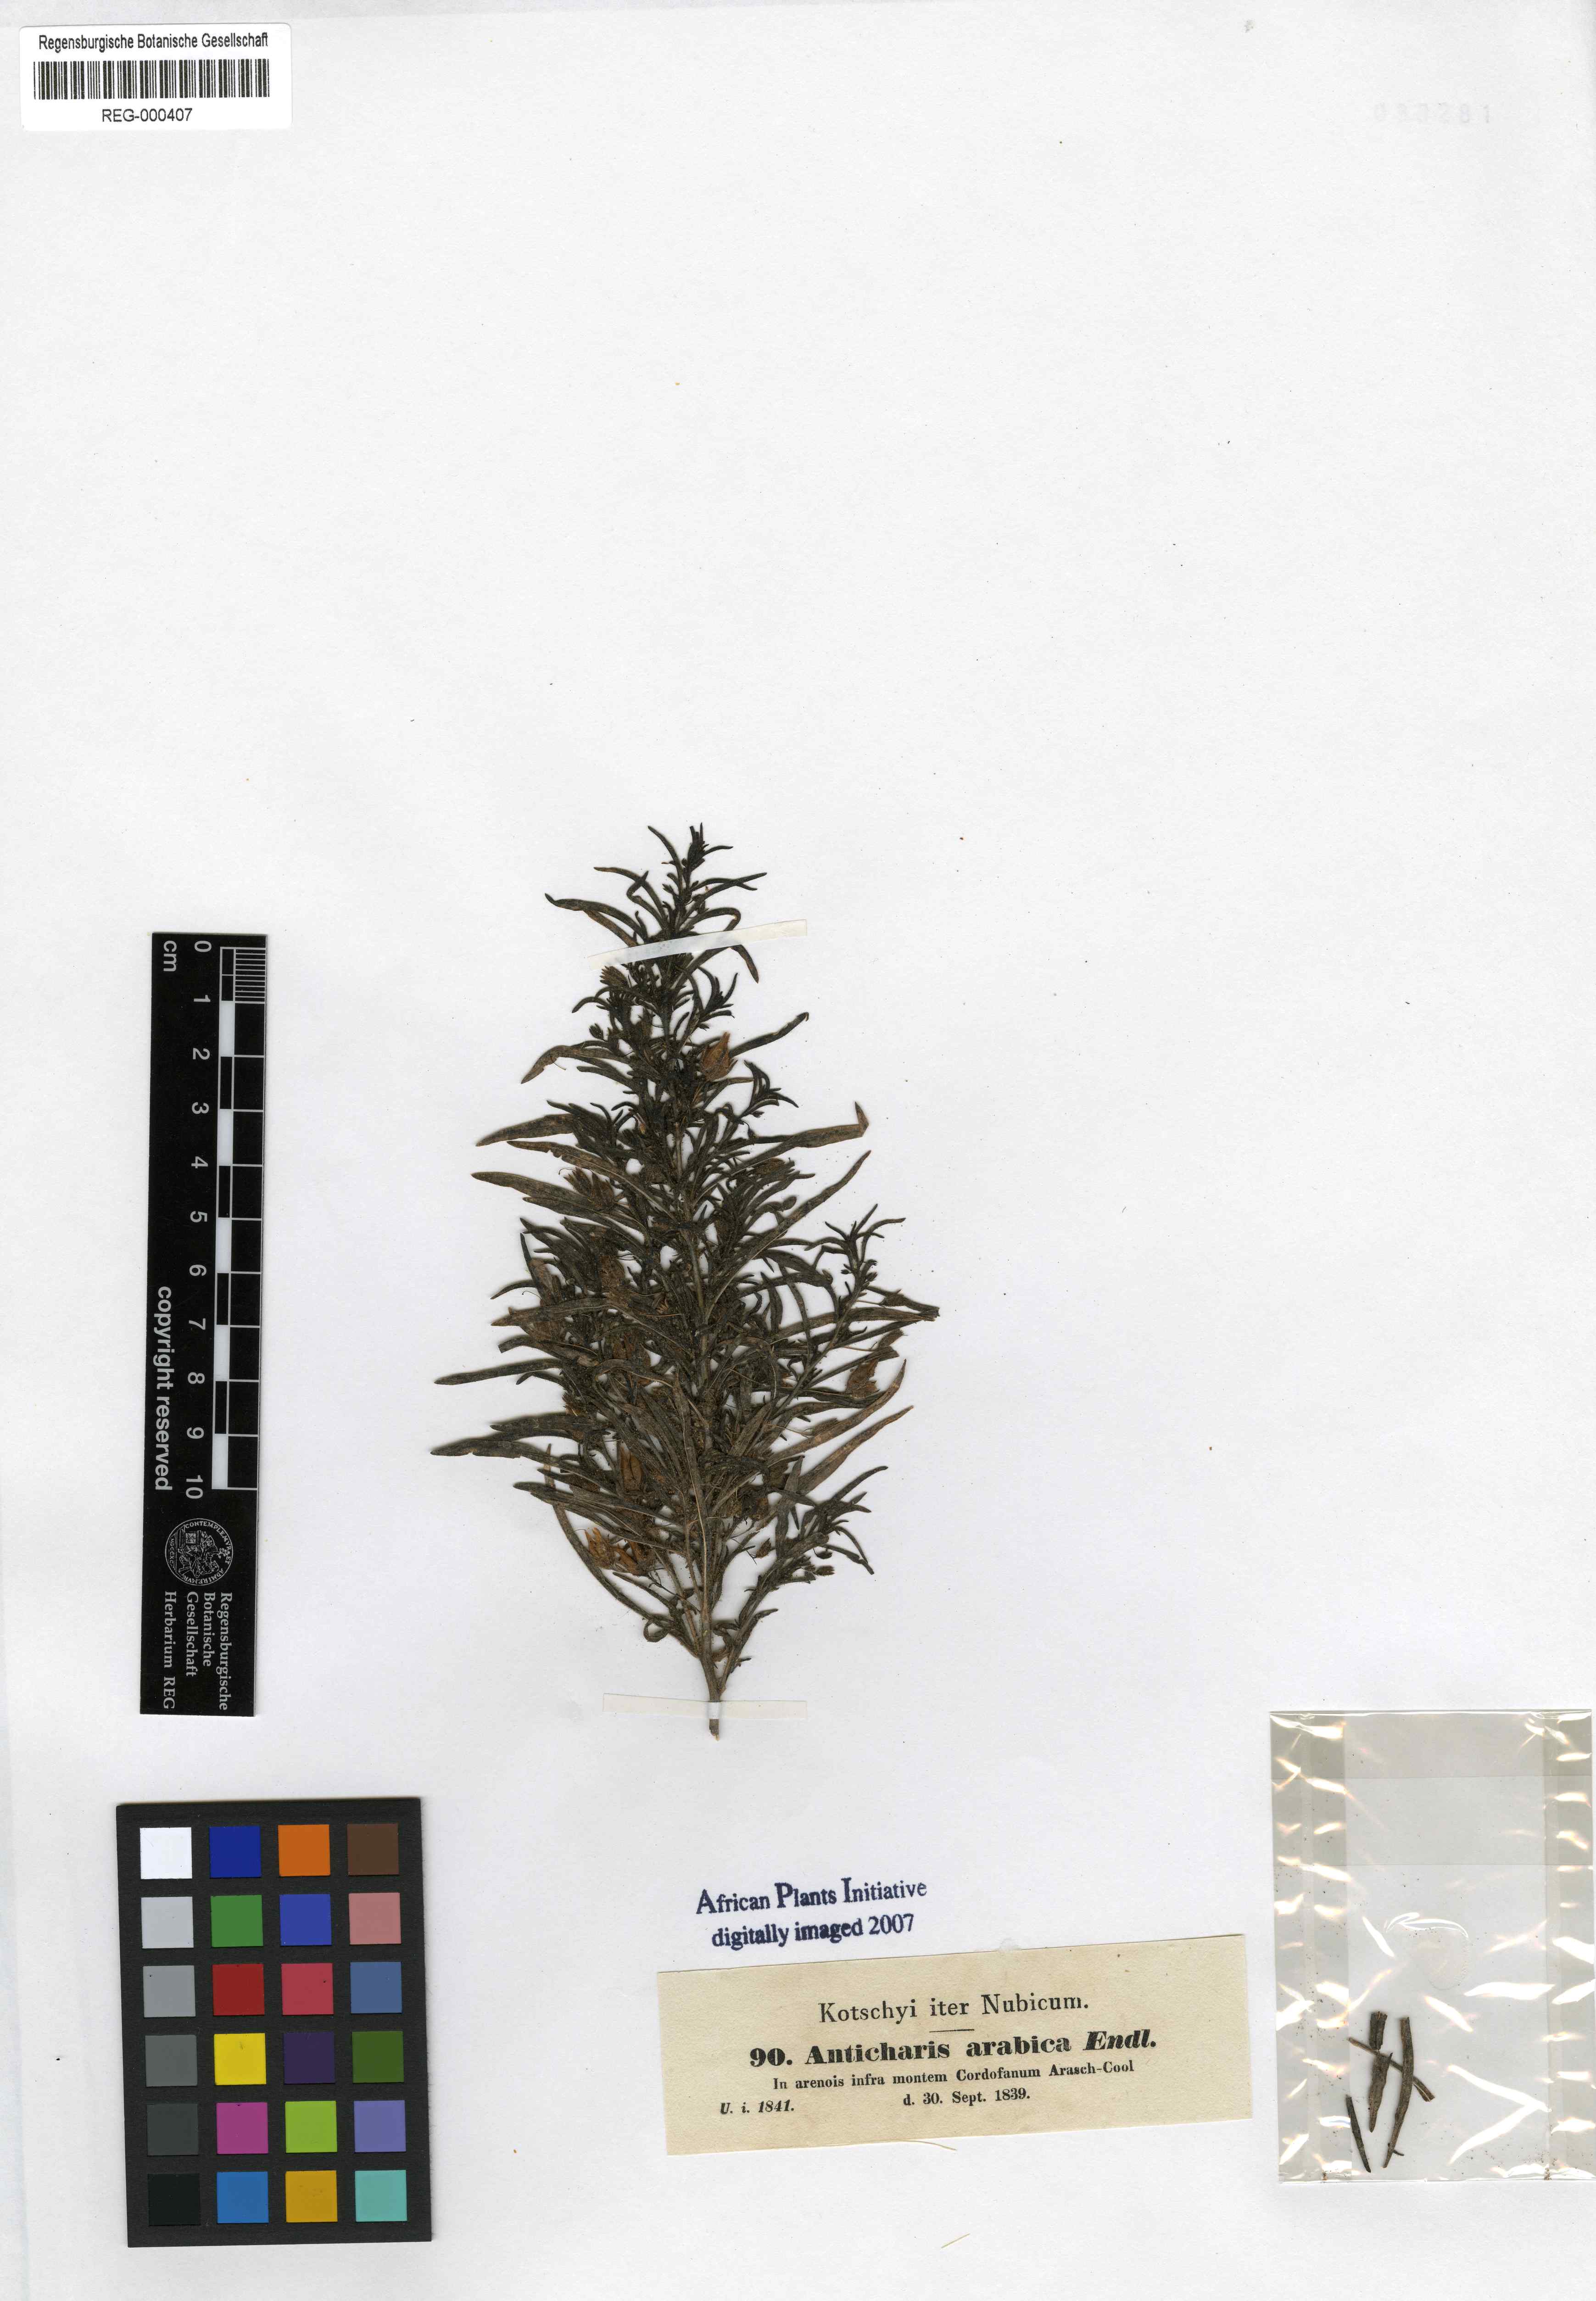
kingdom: Plantae
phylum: Tracheophyta
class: Magnoliopsida
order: Lamiales
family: Scrophulariaceae
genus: Anticharis
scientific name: Anticharis arabica
